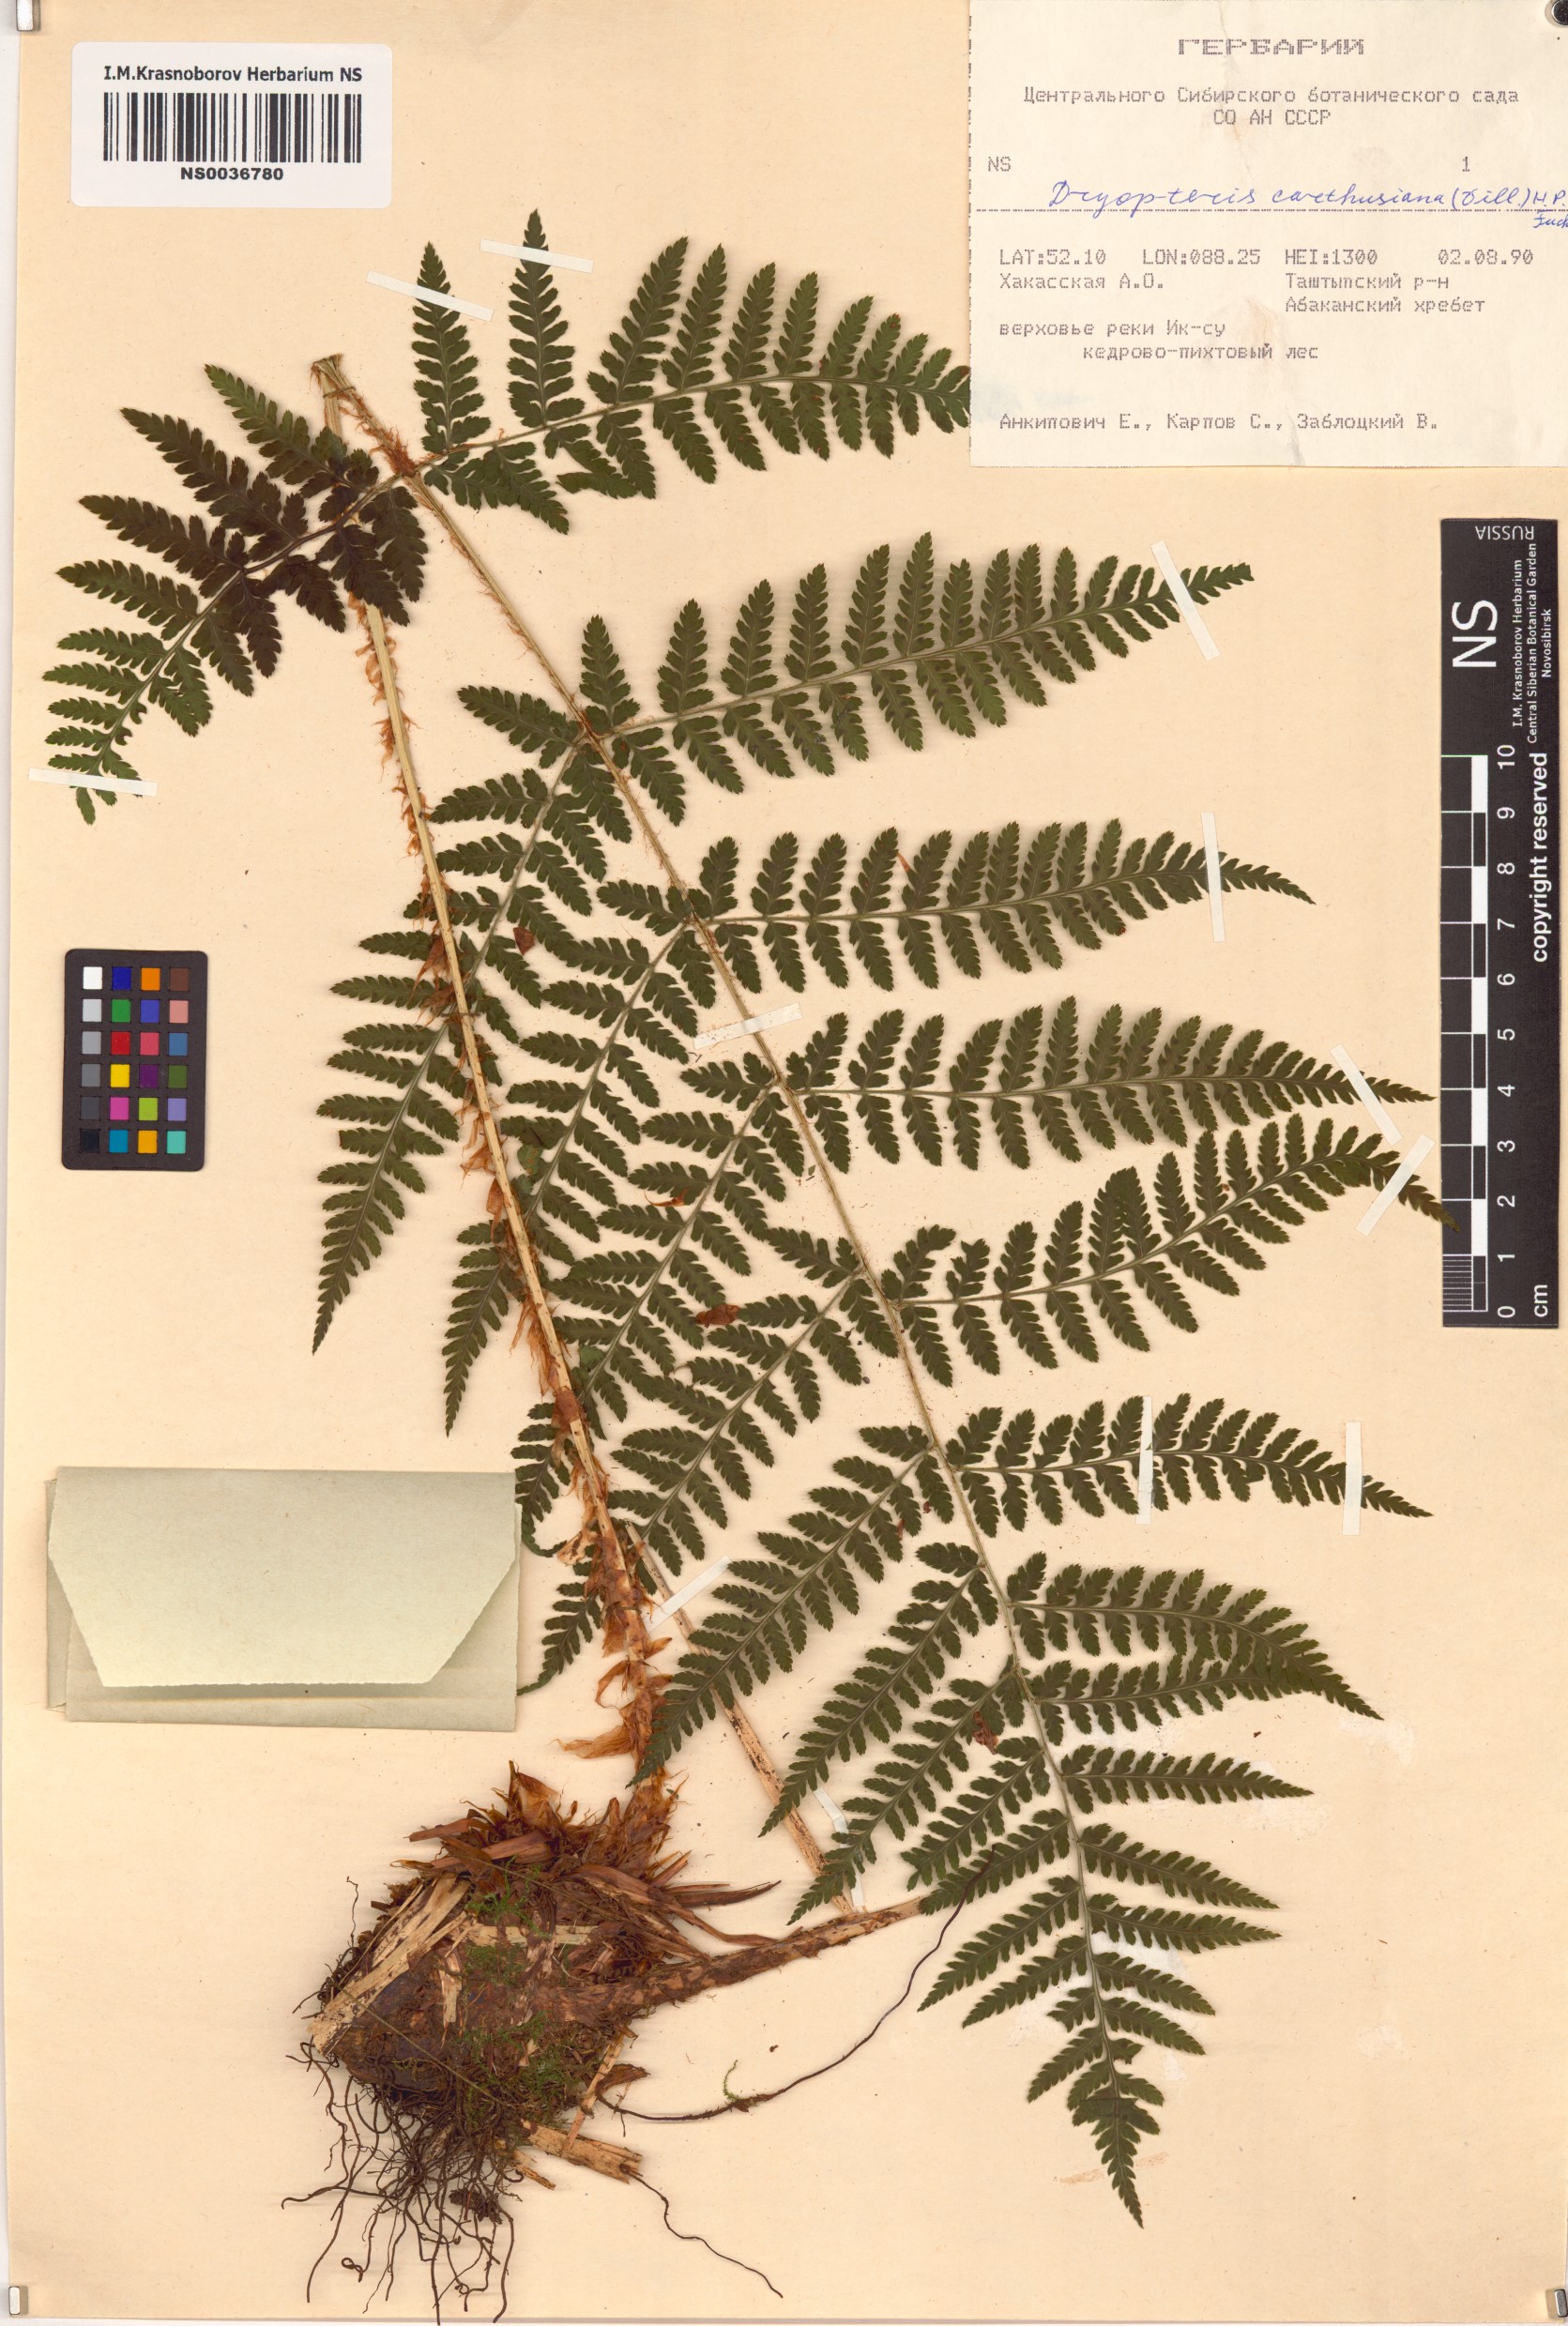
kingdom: Plantae
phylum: Tracheophyta
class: Polypodiopsida
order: Polypodiales
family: Dryopteridaceae
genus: Dryopteris
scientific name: Dryopteris carthusiana
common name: Narrow buckler-fern
